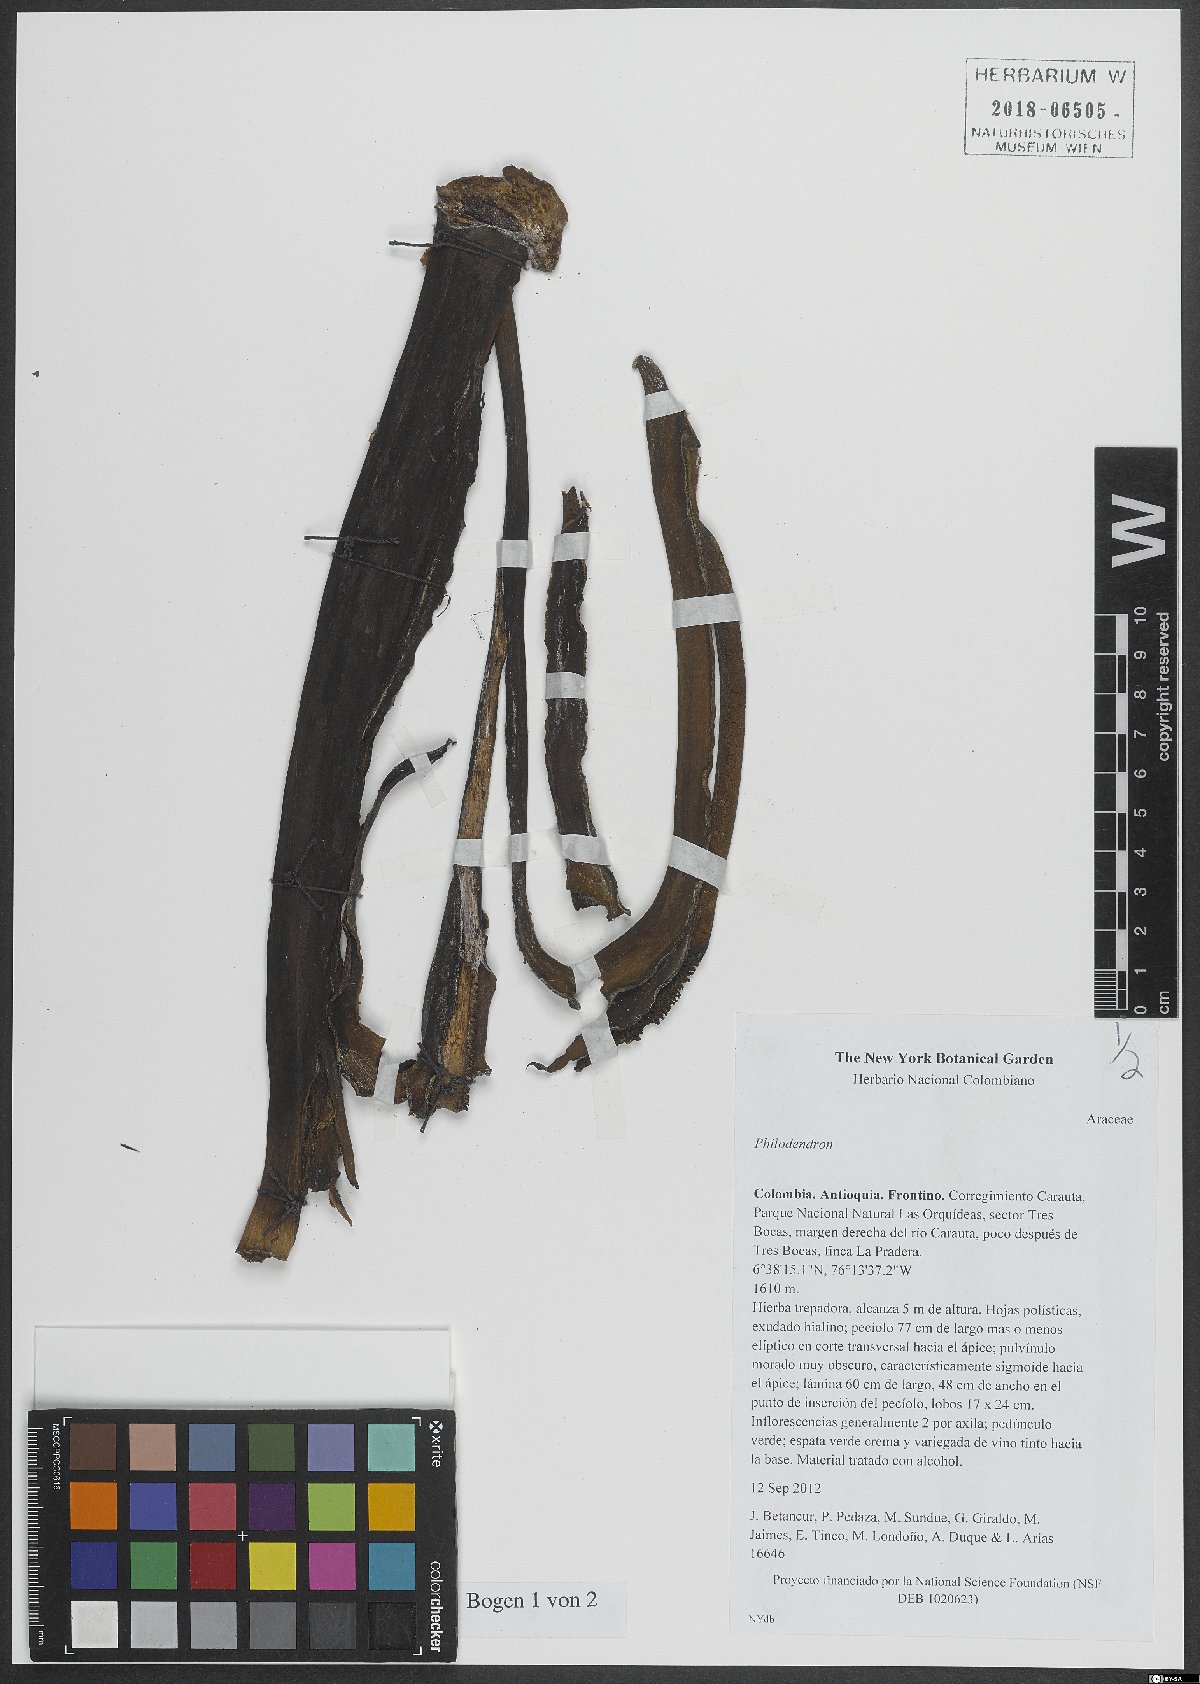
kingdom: Plantae
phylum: Tracheophyta
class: Liliopsida
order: Alismatales
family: Araceae
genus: Philodendron
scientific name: Philodendron
